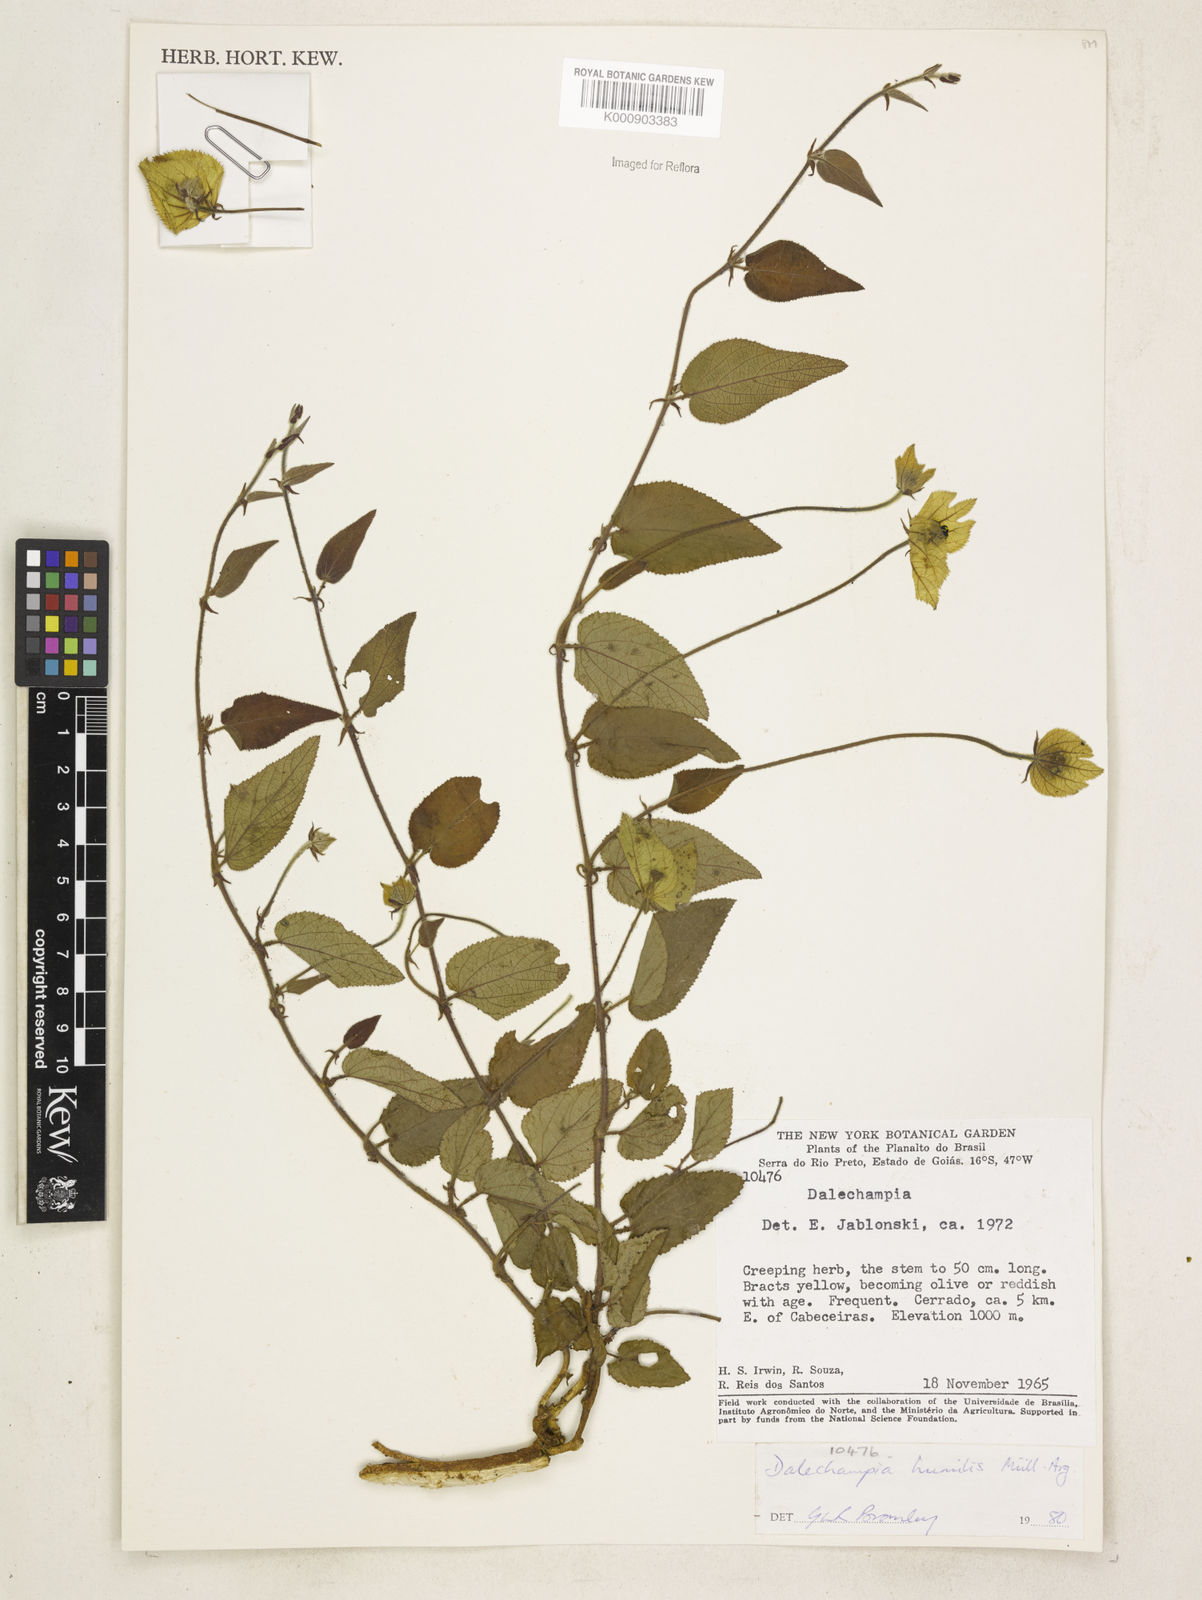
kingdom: Plantae
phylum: Tracheophyta
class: Magnoliopsida
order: Malpighiales
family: Euphorbiaceae
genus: Dalechampia
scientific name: Dalechampia
